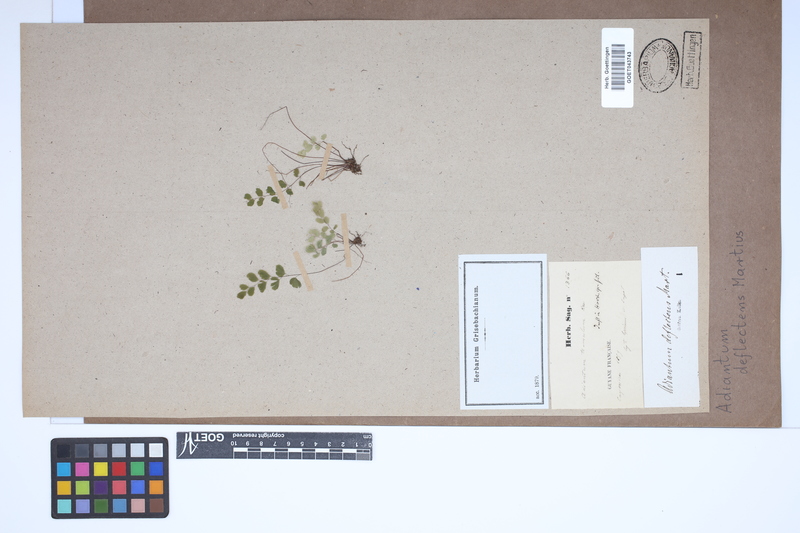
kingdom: Plantae
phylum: Tracheophyta
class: Polypodiopsida
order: Polypodiales
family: Pteridaceae
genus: Adiantum
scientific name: Adiantum deflectens
